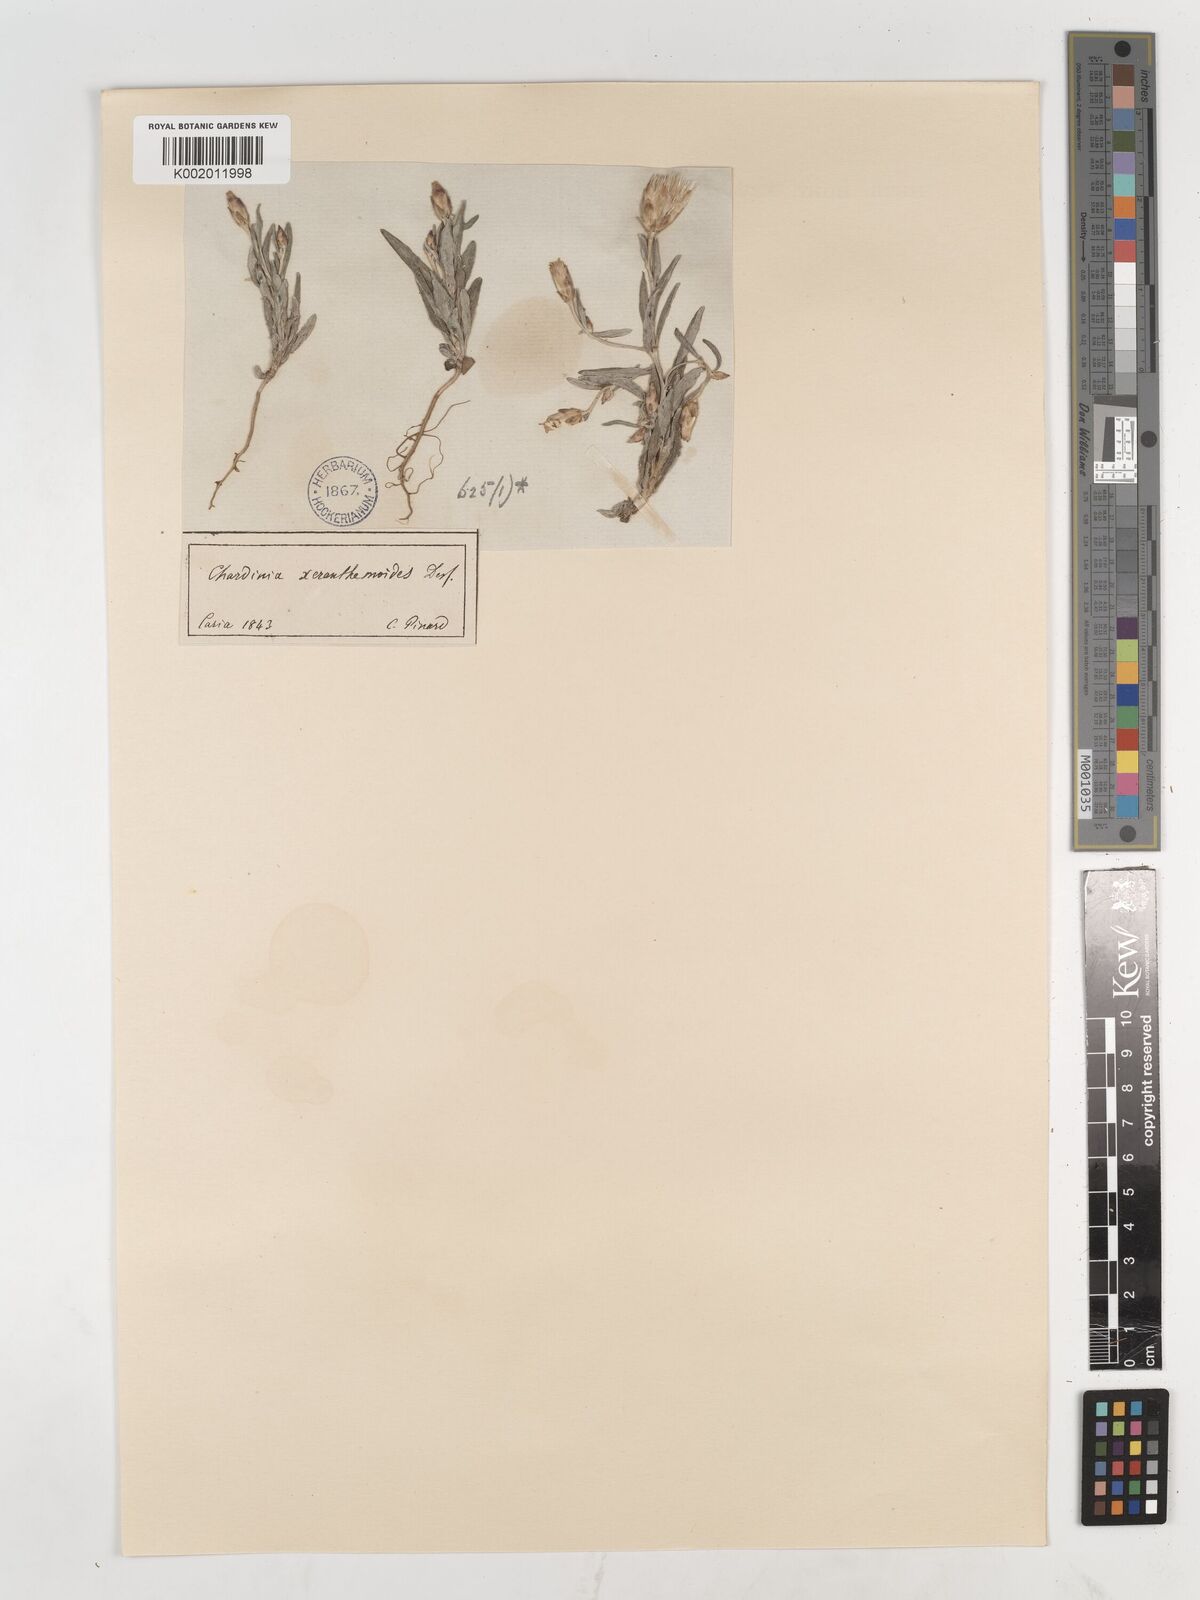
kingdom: Plantae
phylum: Tracheophyta
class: Magnoliopsida
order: Asterales
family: Asteraceae
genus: Chardinia
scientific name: Chardinia orientalis
